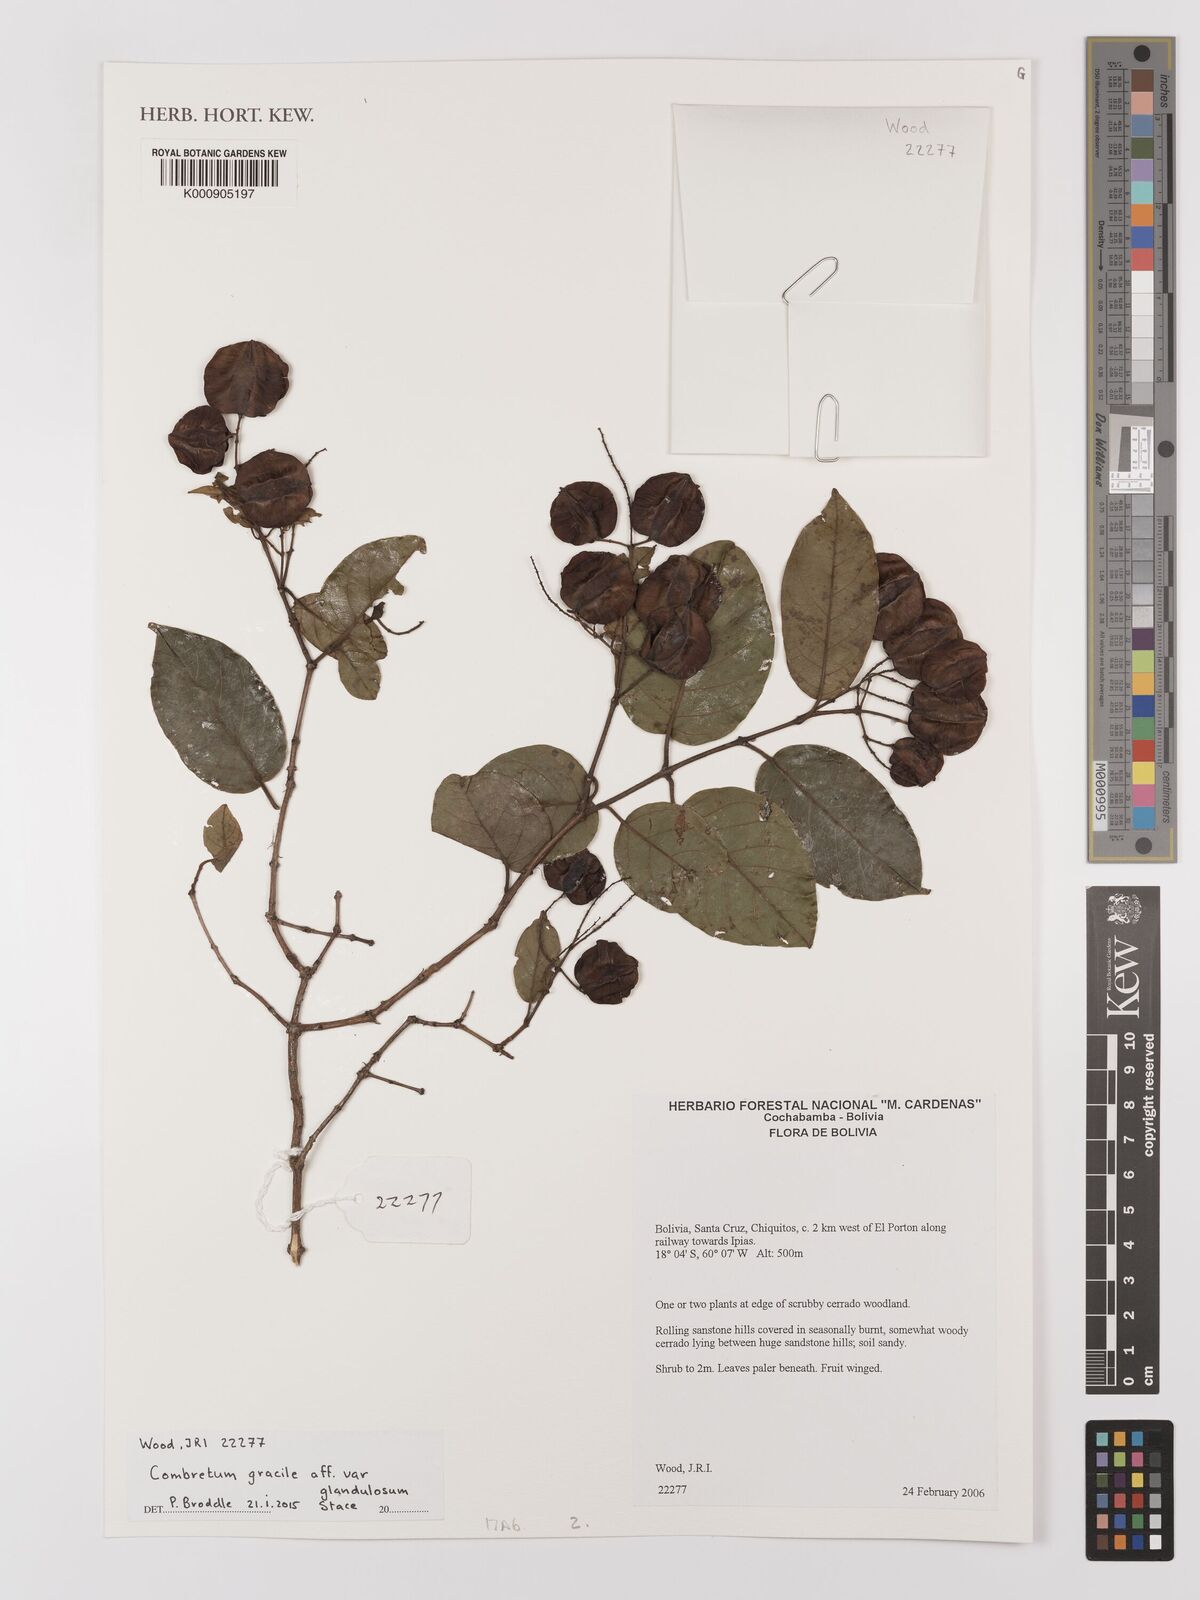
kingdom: Plantae
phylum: Tracheophyta
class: Magnoliopsida
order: Myrtales
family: Combretaceae
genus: Combretum
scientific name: Combretum gracile
